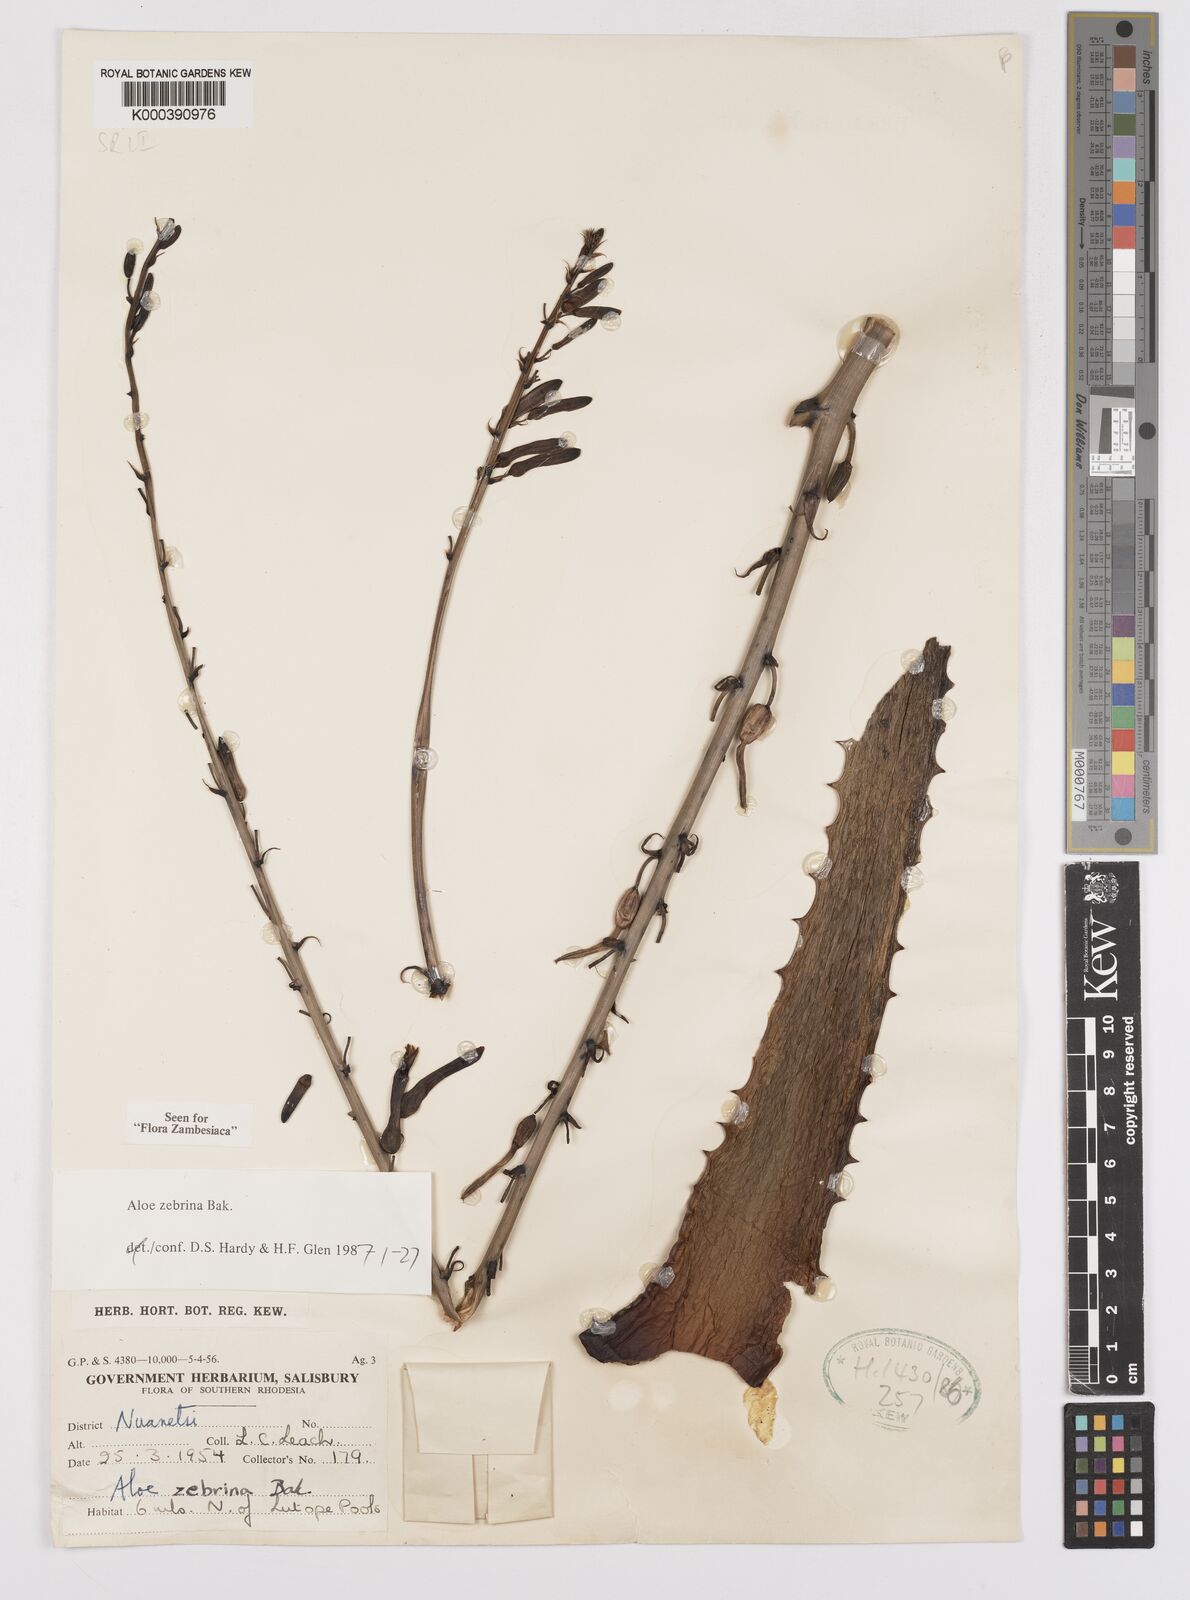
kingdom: Plantae
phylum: Tracheophyta
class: Liliopsida
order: Asparagales
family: Asphodelaceae
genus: Aloe
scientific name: Aloe zebrina
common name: Zebra-leaf aloe
